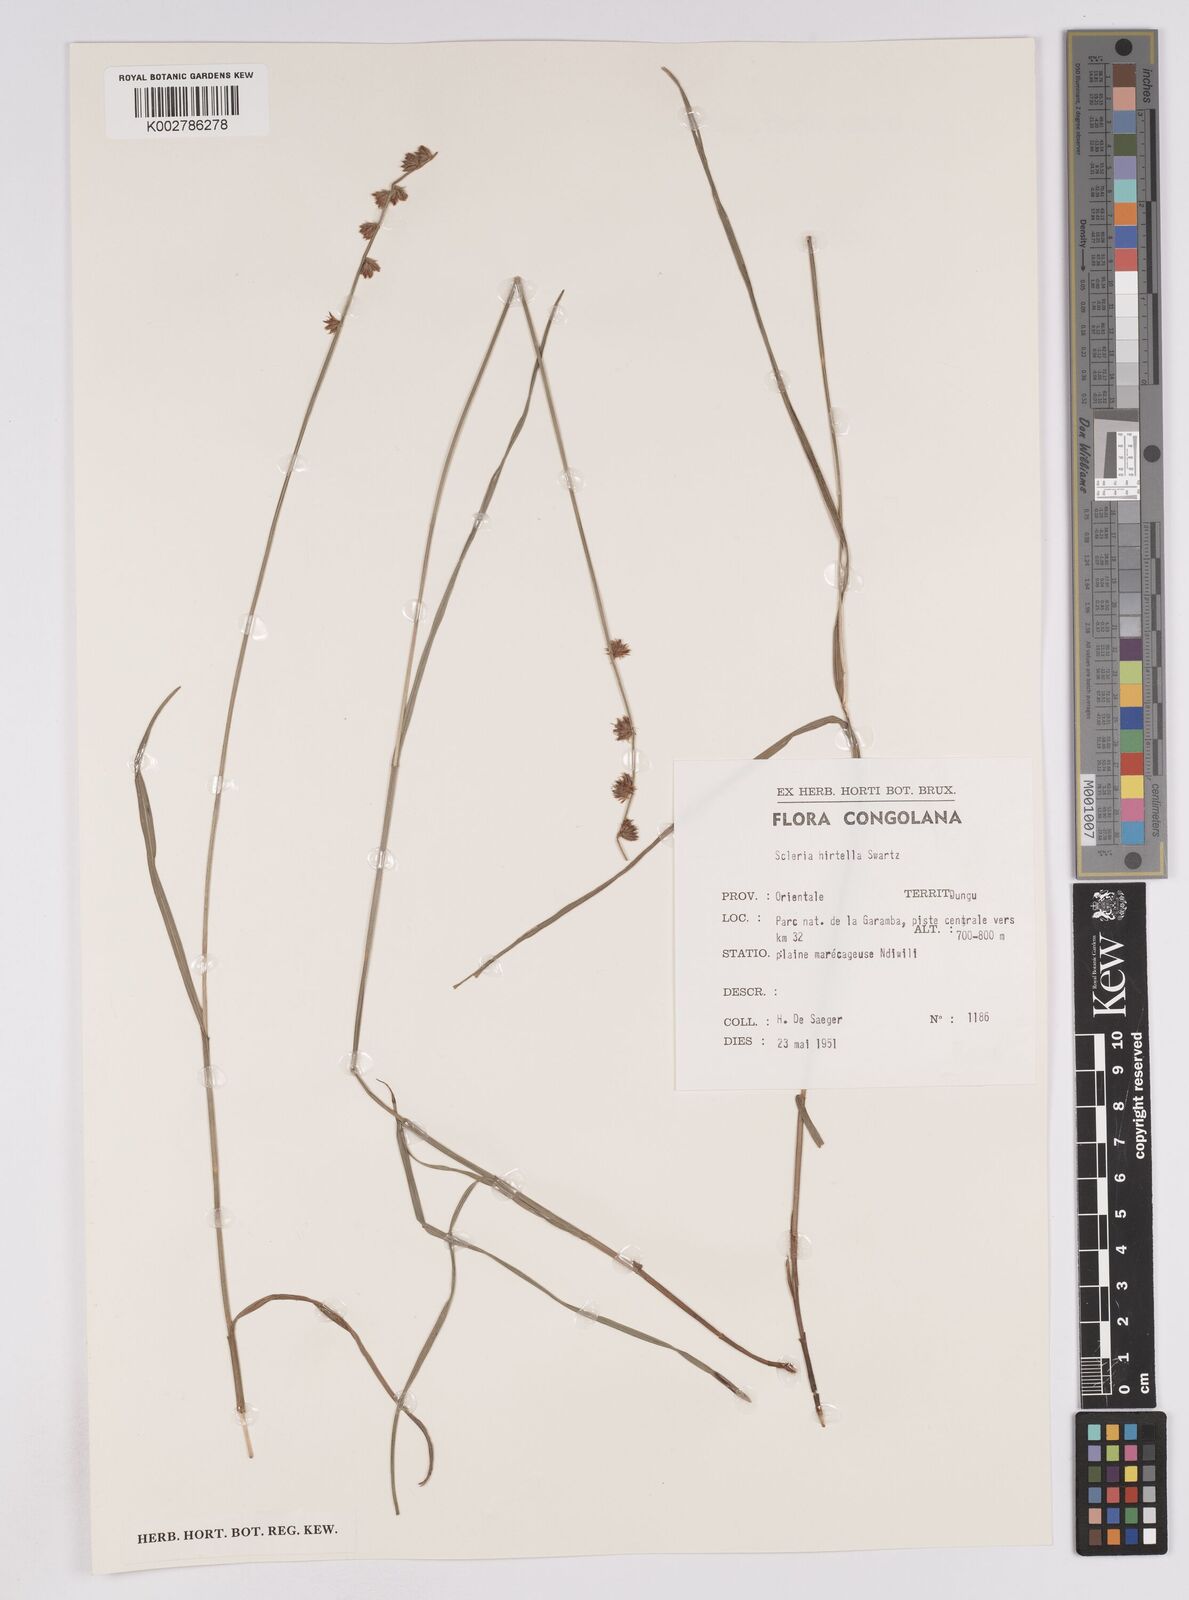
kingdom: Plantae
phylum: Tracheophyta
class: Liliopsida
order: Poales
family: Cyperaceae
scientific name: Cyperaceae
